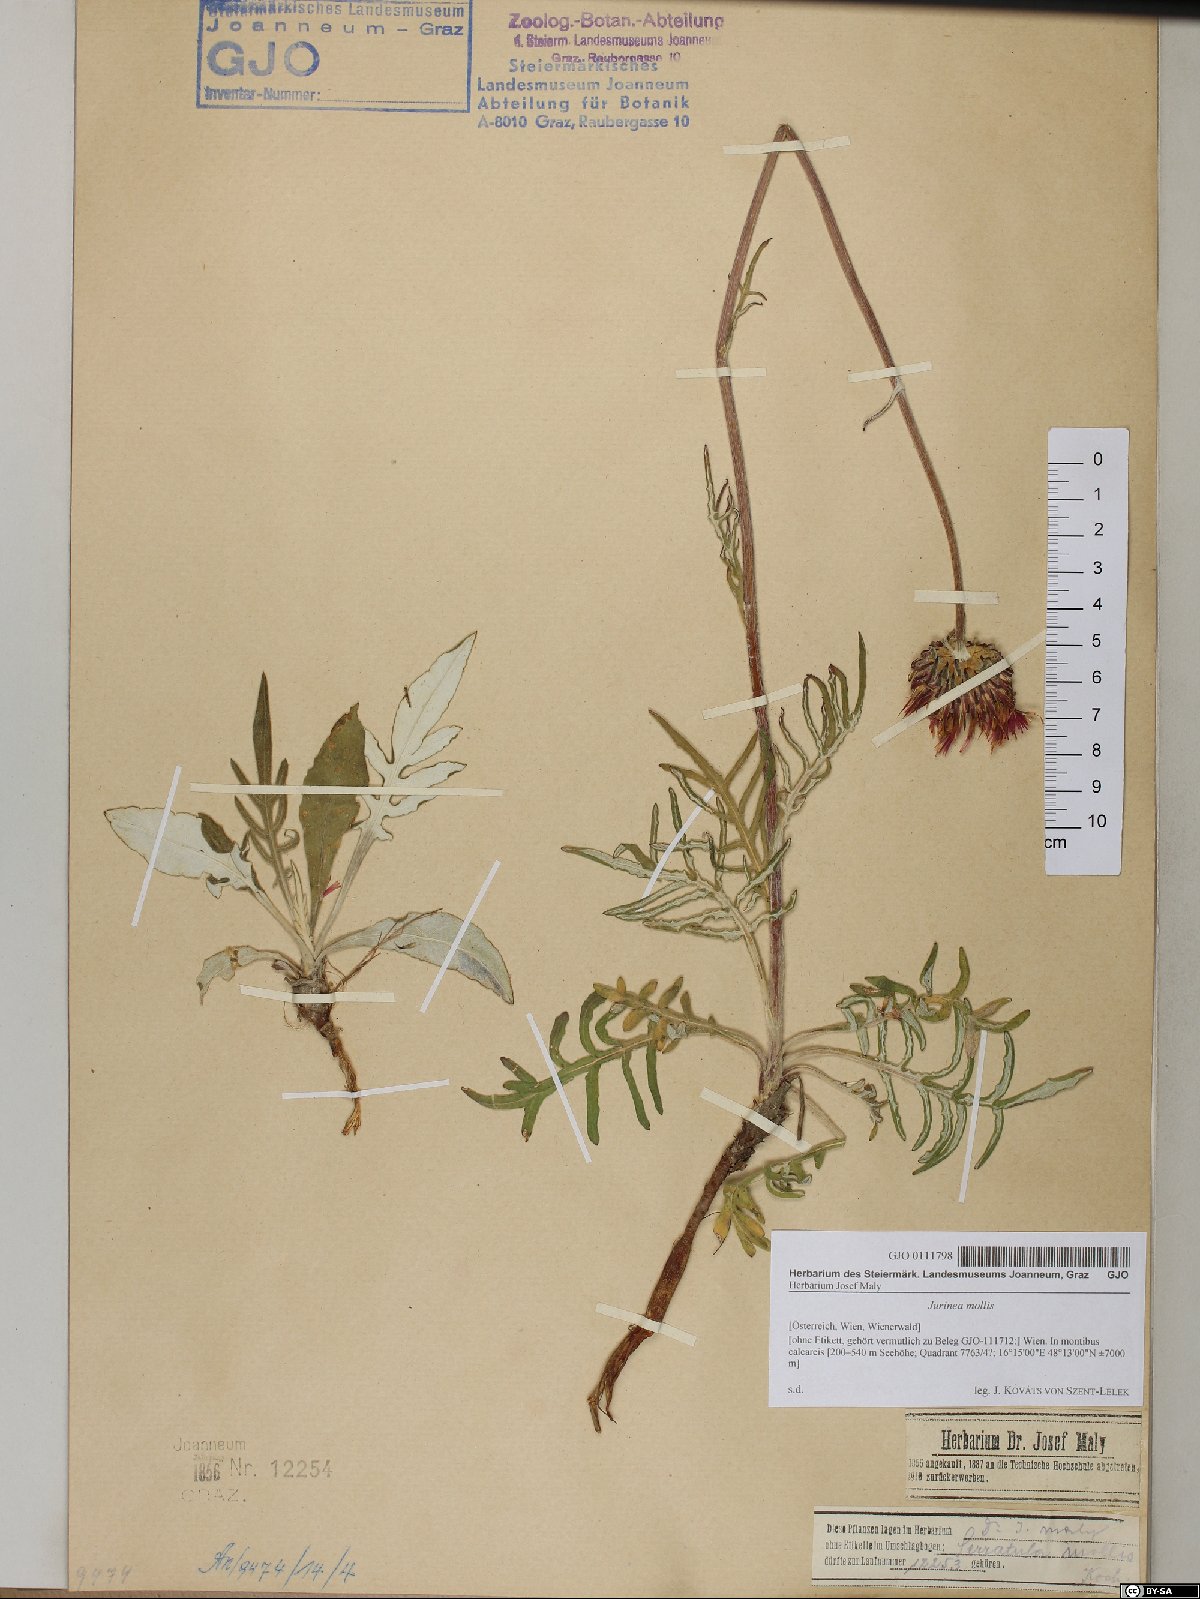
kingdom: Plantae
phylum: Tracheophyta
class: Magnoliopsida
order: Asterales
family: Asteraceae
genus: Jurinea
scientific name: Jurinea mollis
